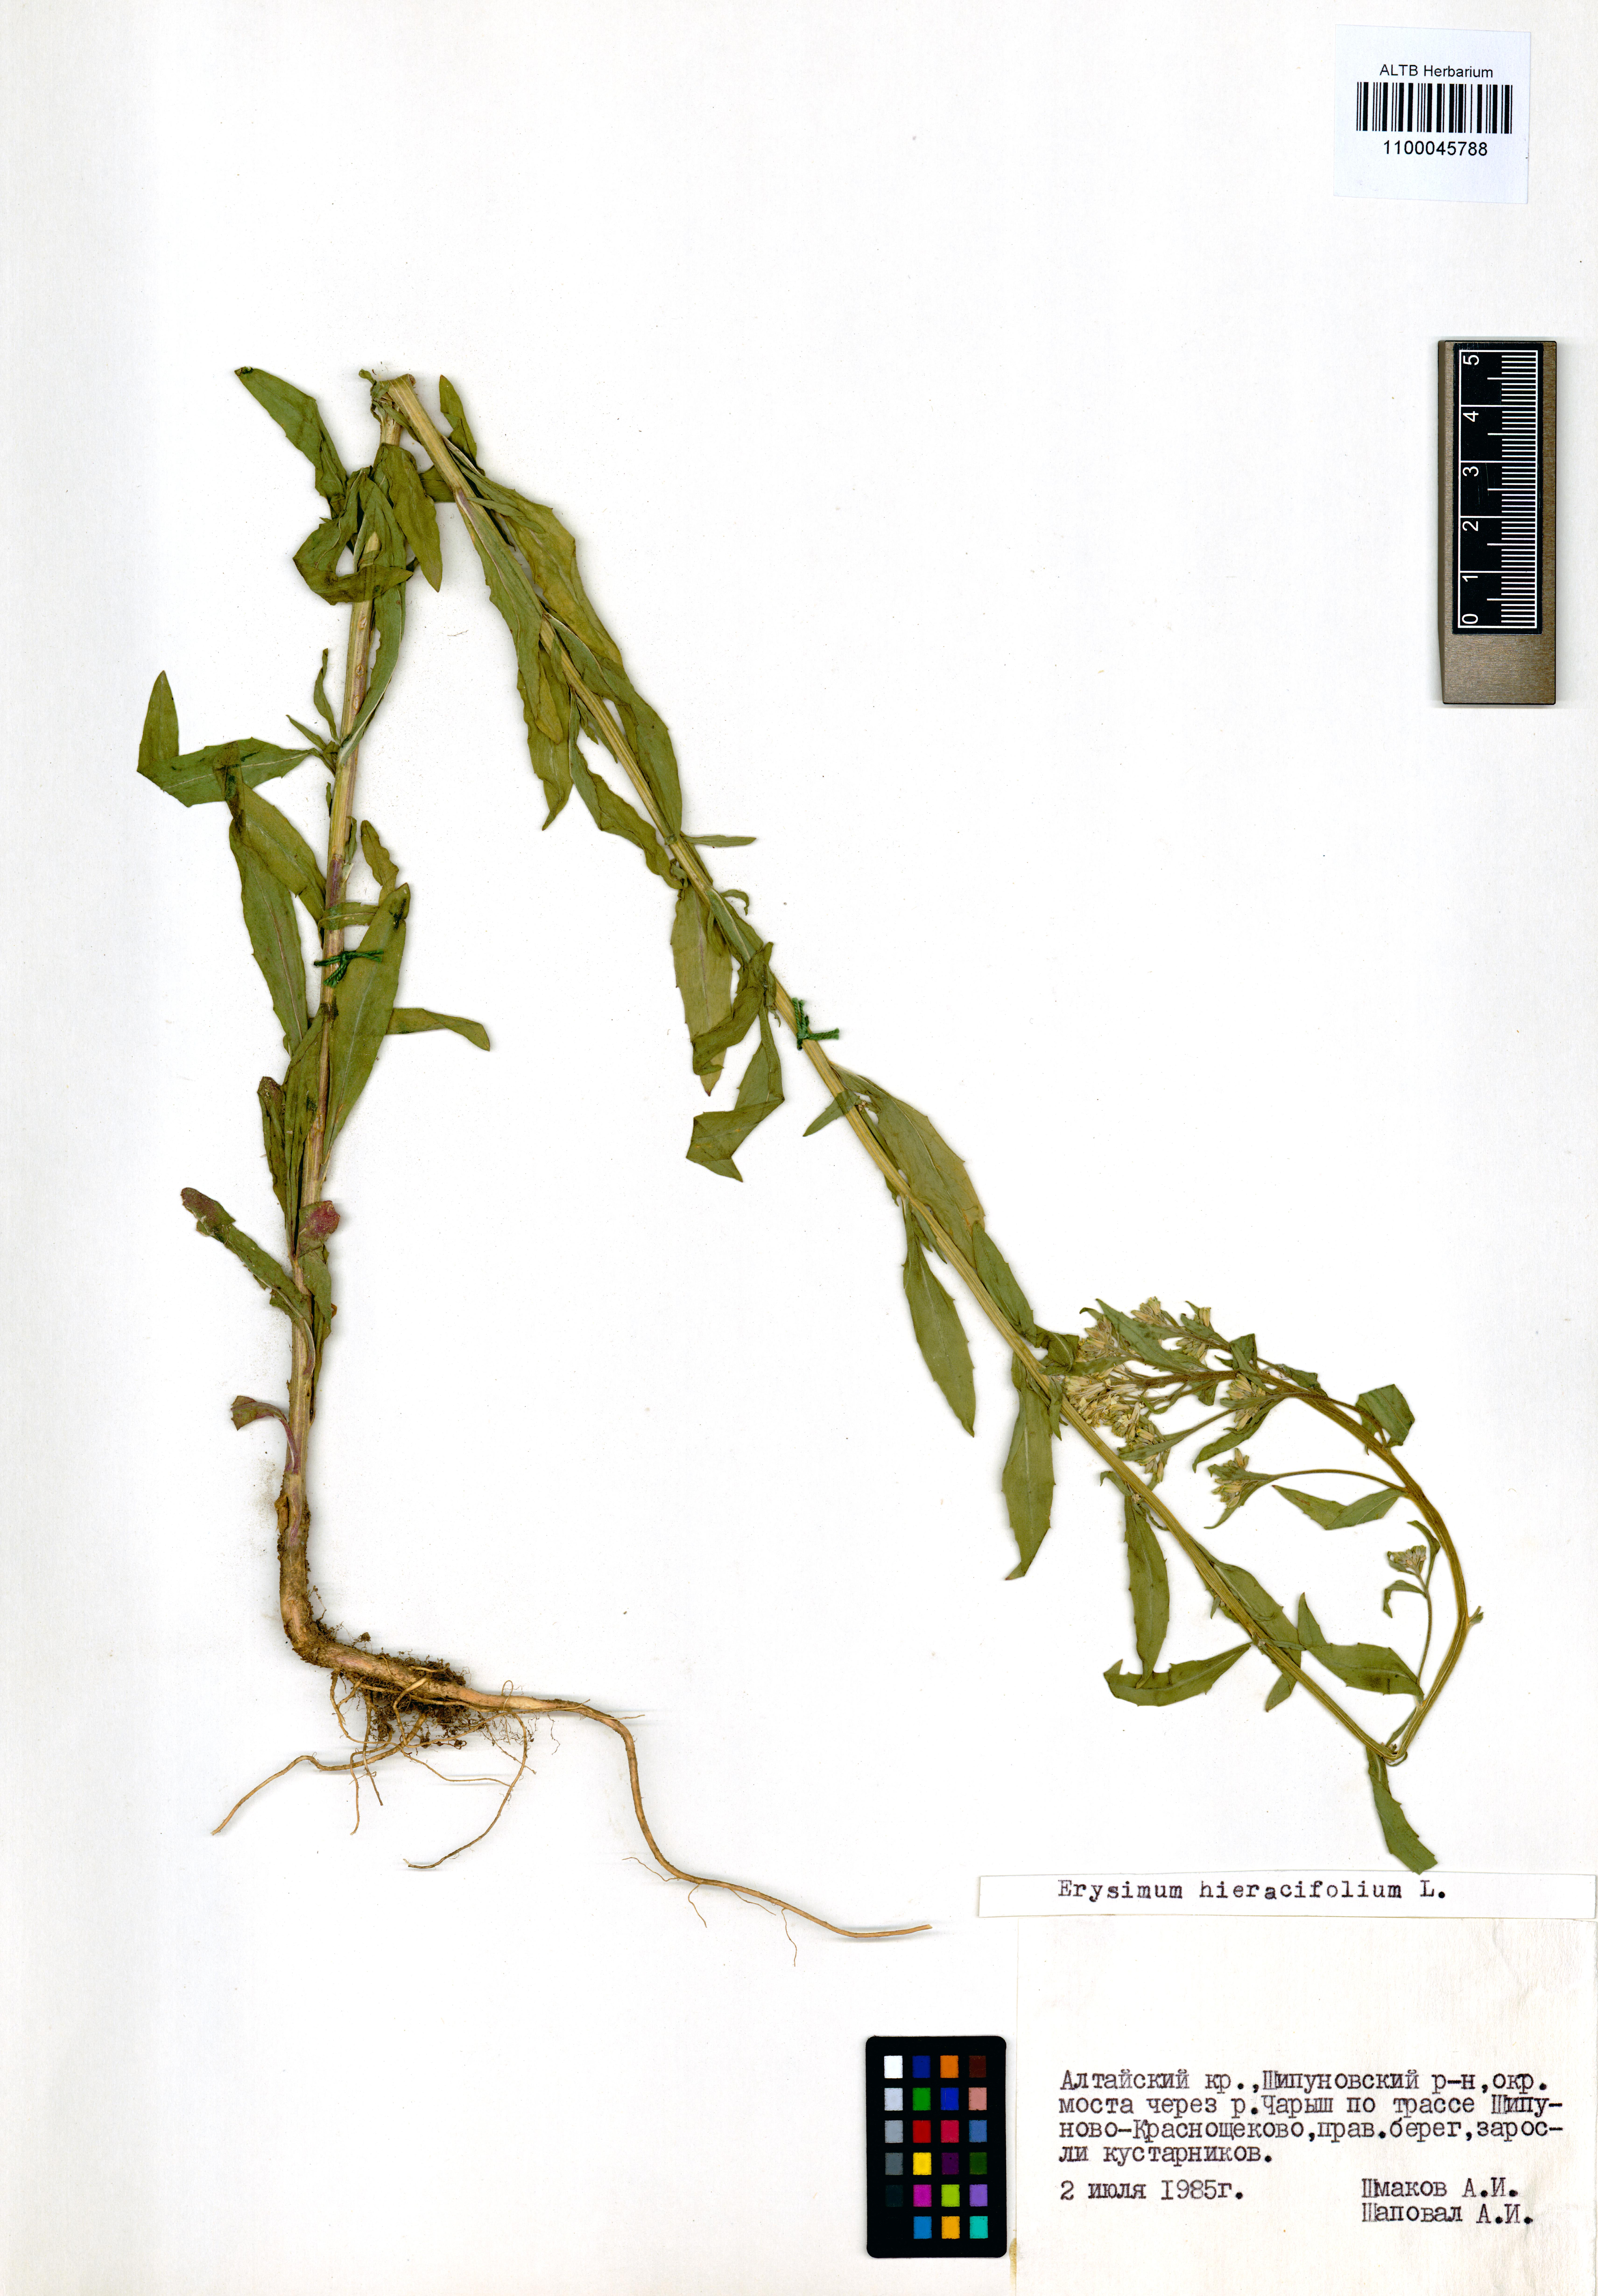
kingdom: Plantae
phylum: Tracheophyta
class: Magnoliopsida
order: Brassicales
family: Brassicaceae
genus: Erysimum
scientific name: Erysimum hieraciifolium
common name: European wallflower
